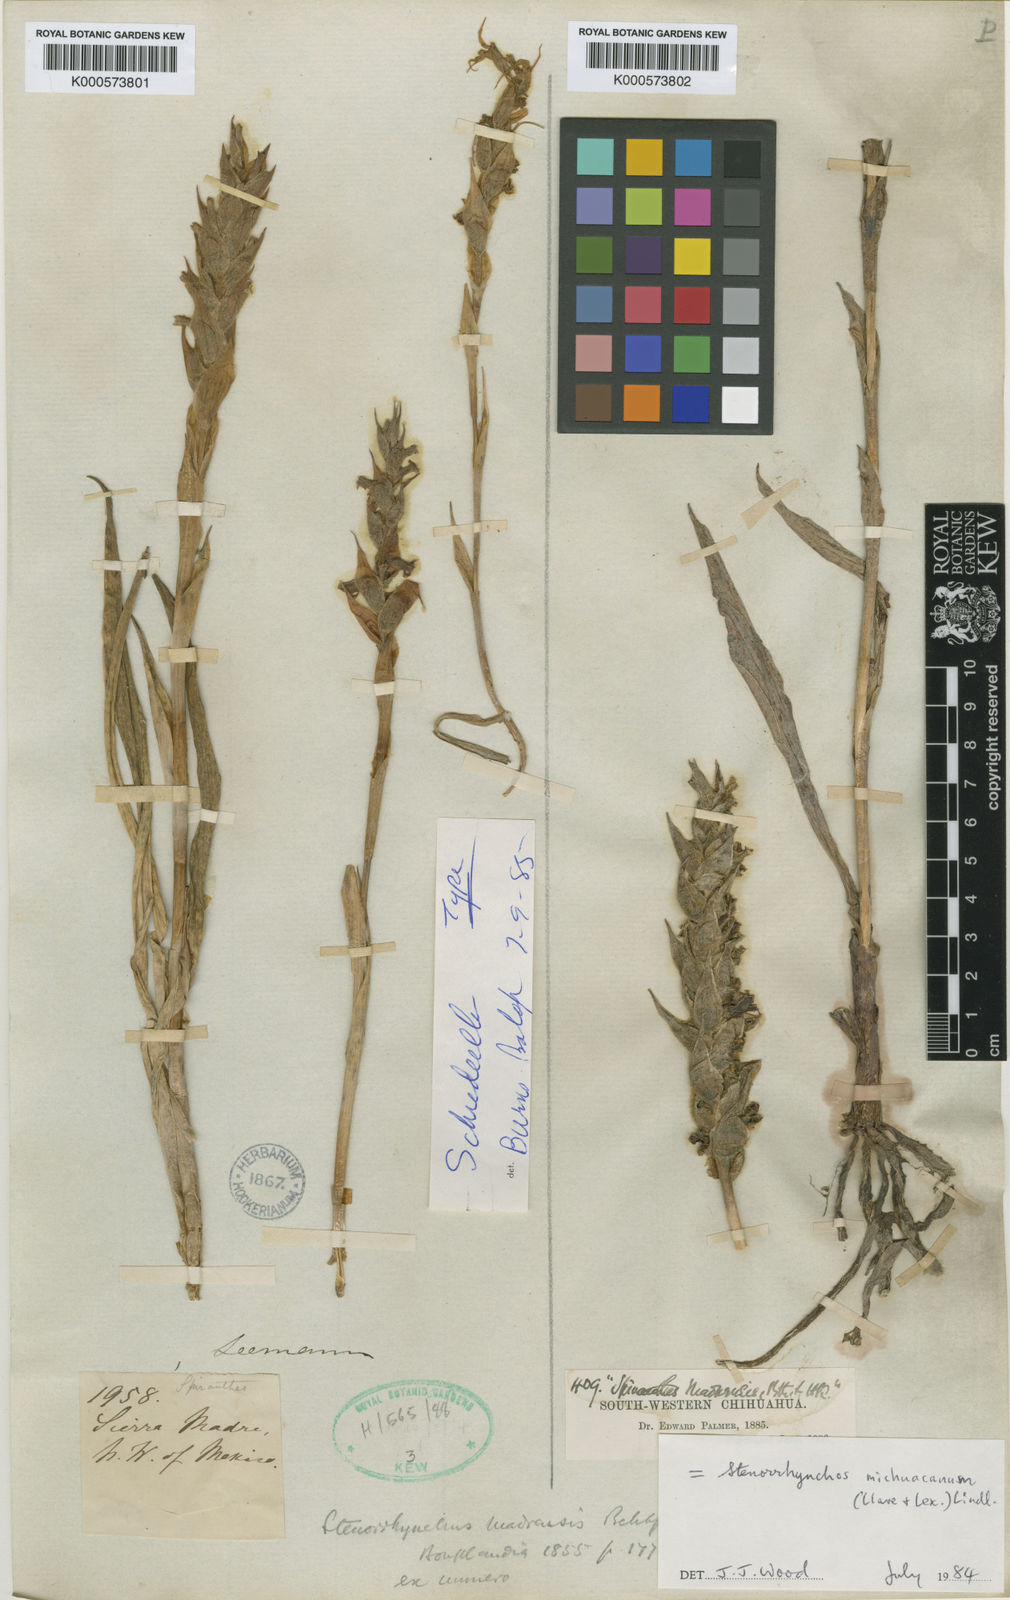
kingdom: Plantae
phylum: Tracheophyta
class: Liliopsida
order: Asparagales
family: Orchidaceae
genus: Dichromanthus
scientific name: Dichromanthus michuacanus
